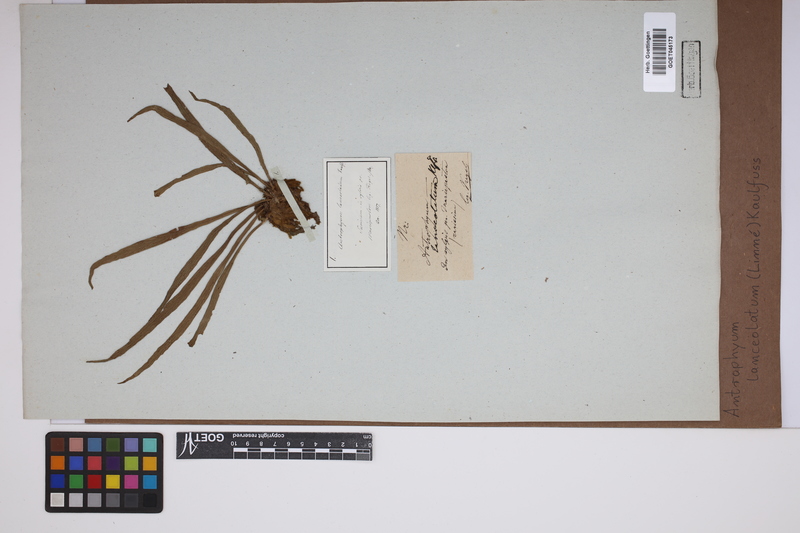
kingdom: Plantae
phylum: Tracheophyta
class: Polypodiopsida
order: Polypodiales
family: Pteridaceae
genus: Polytaenium
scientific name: Polytaenium feei
